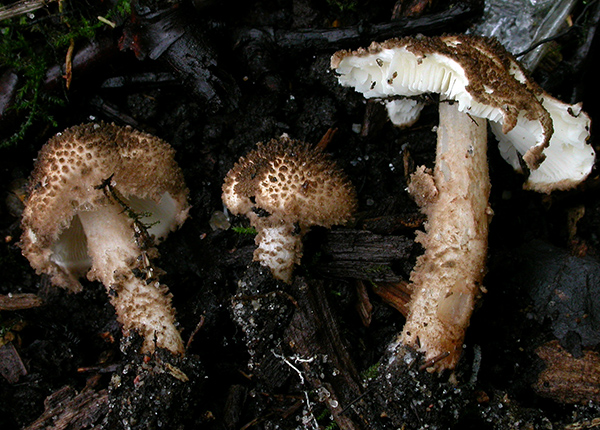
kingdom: Fungi
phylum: Basidiomycota
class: Agaricomycetes
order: Agaricales
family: Agaricaceae
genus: Echinoderma
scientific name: Echinoderma jacobi
